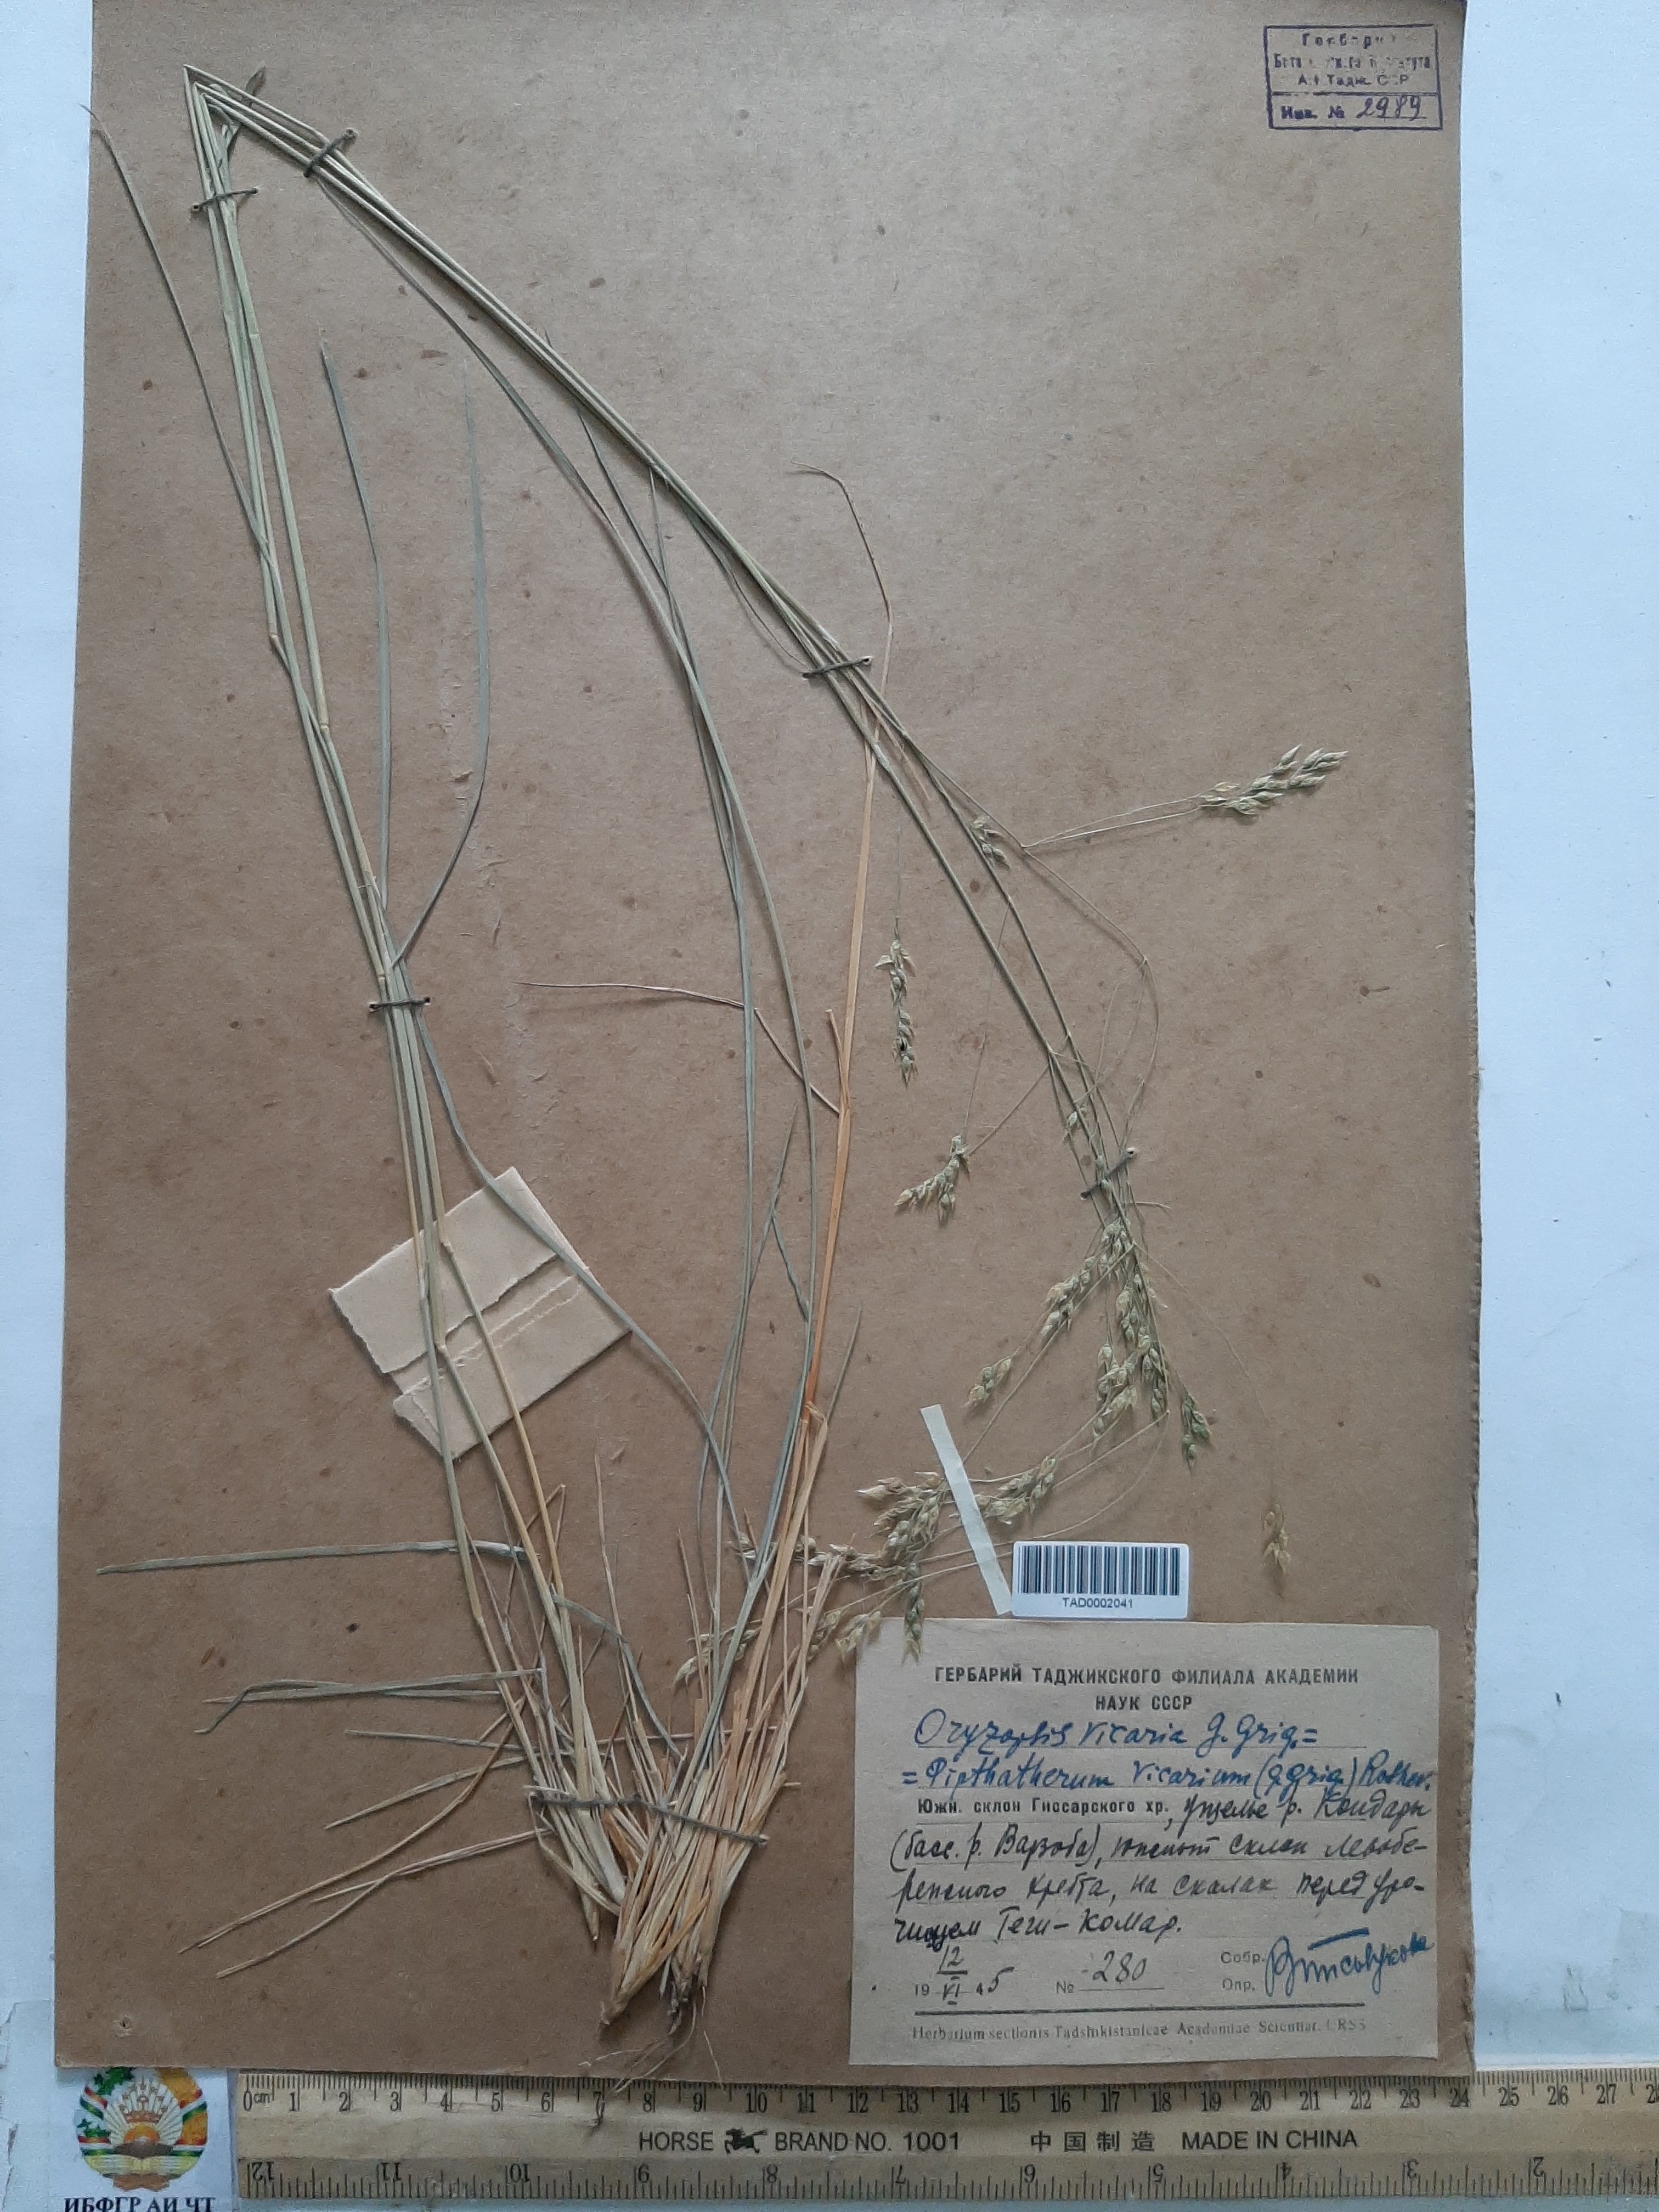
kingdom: Plantae
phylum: Tracheophyta
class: Liliopsida
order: Poales
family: Poaceae
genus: Piptatherum
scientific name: Piptatherum microcarpum
